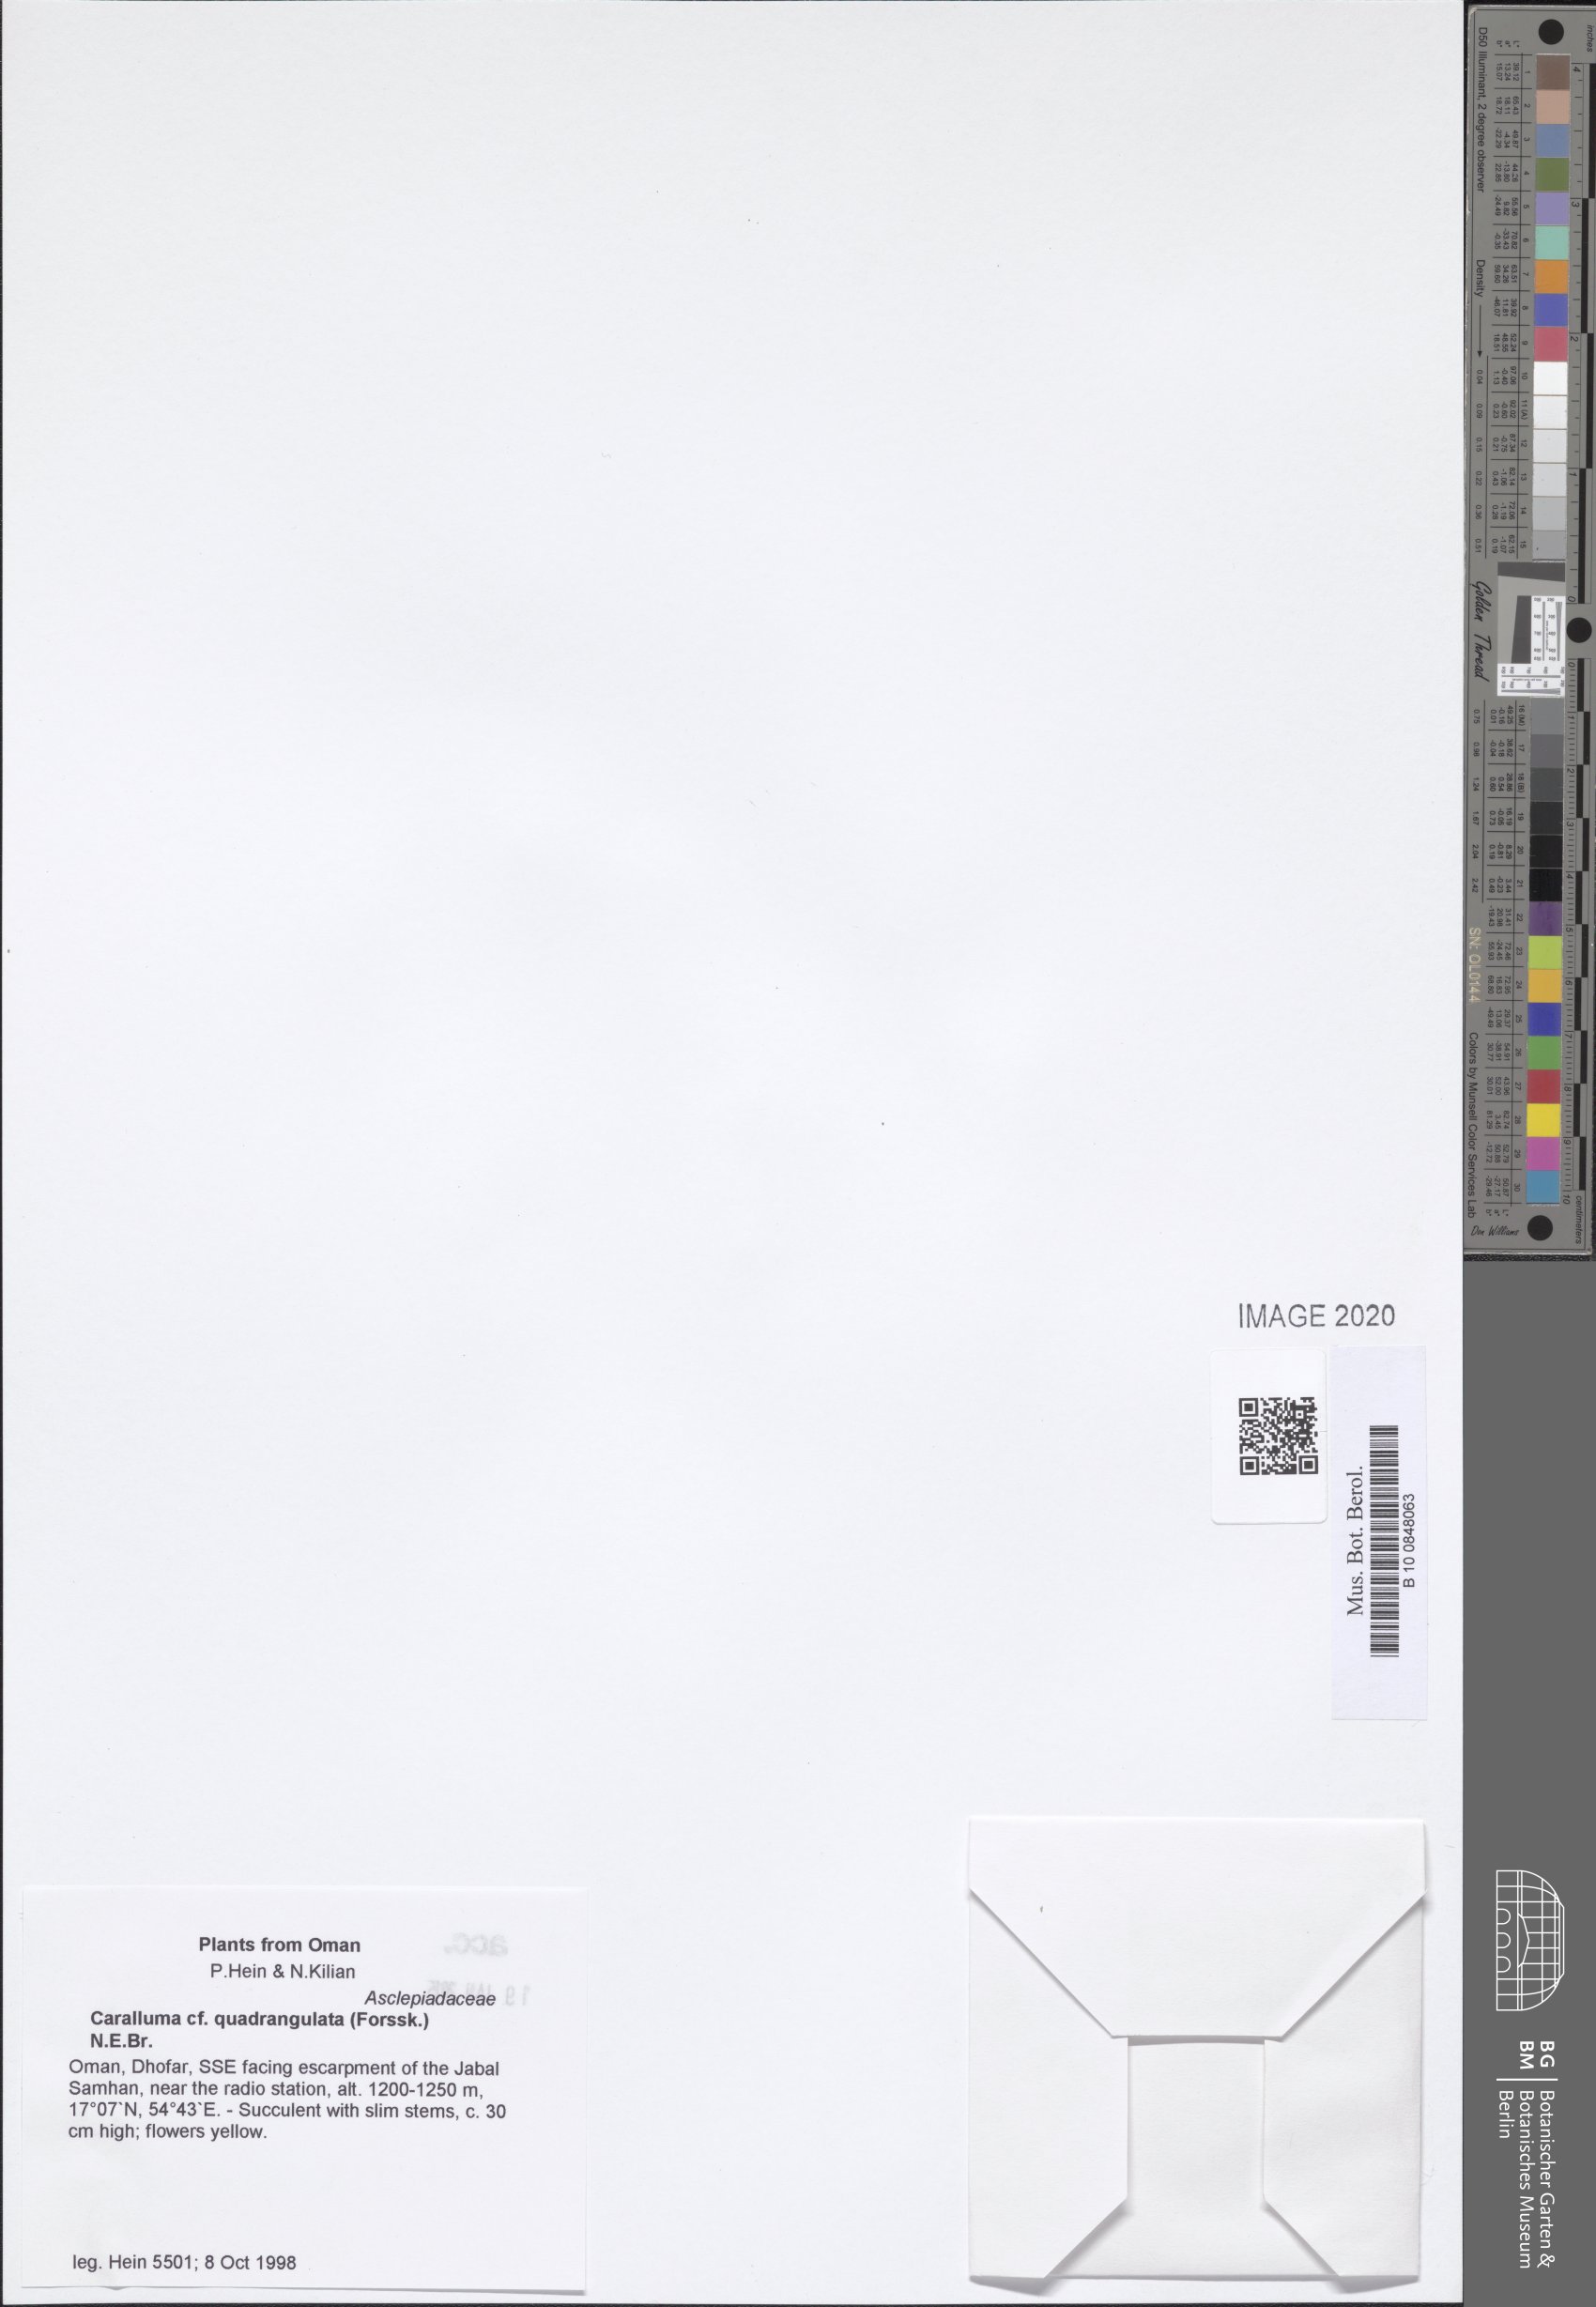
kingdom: Plantae
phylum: Tracheophyta
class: Magnoliopsida
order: Gentianales
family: Apocynaceae
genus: Ceropegia
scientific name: Ceropegia quadrangula
